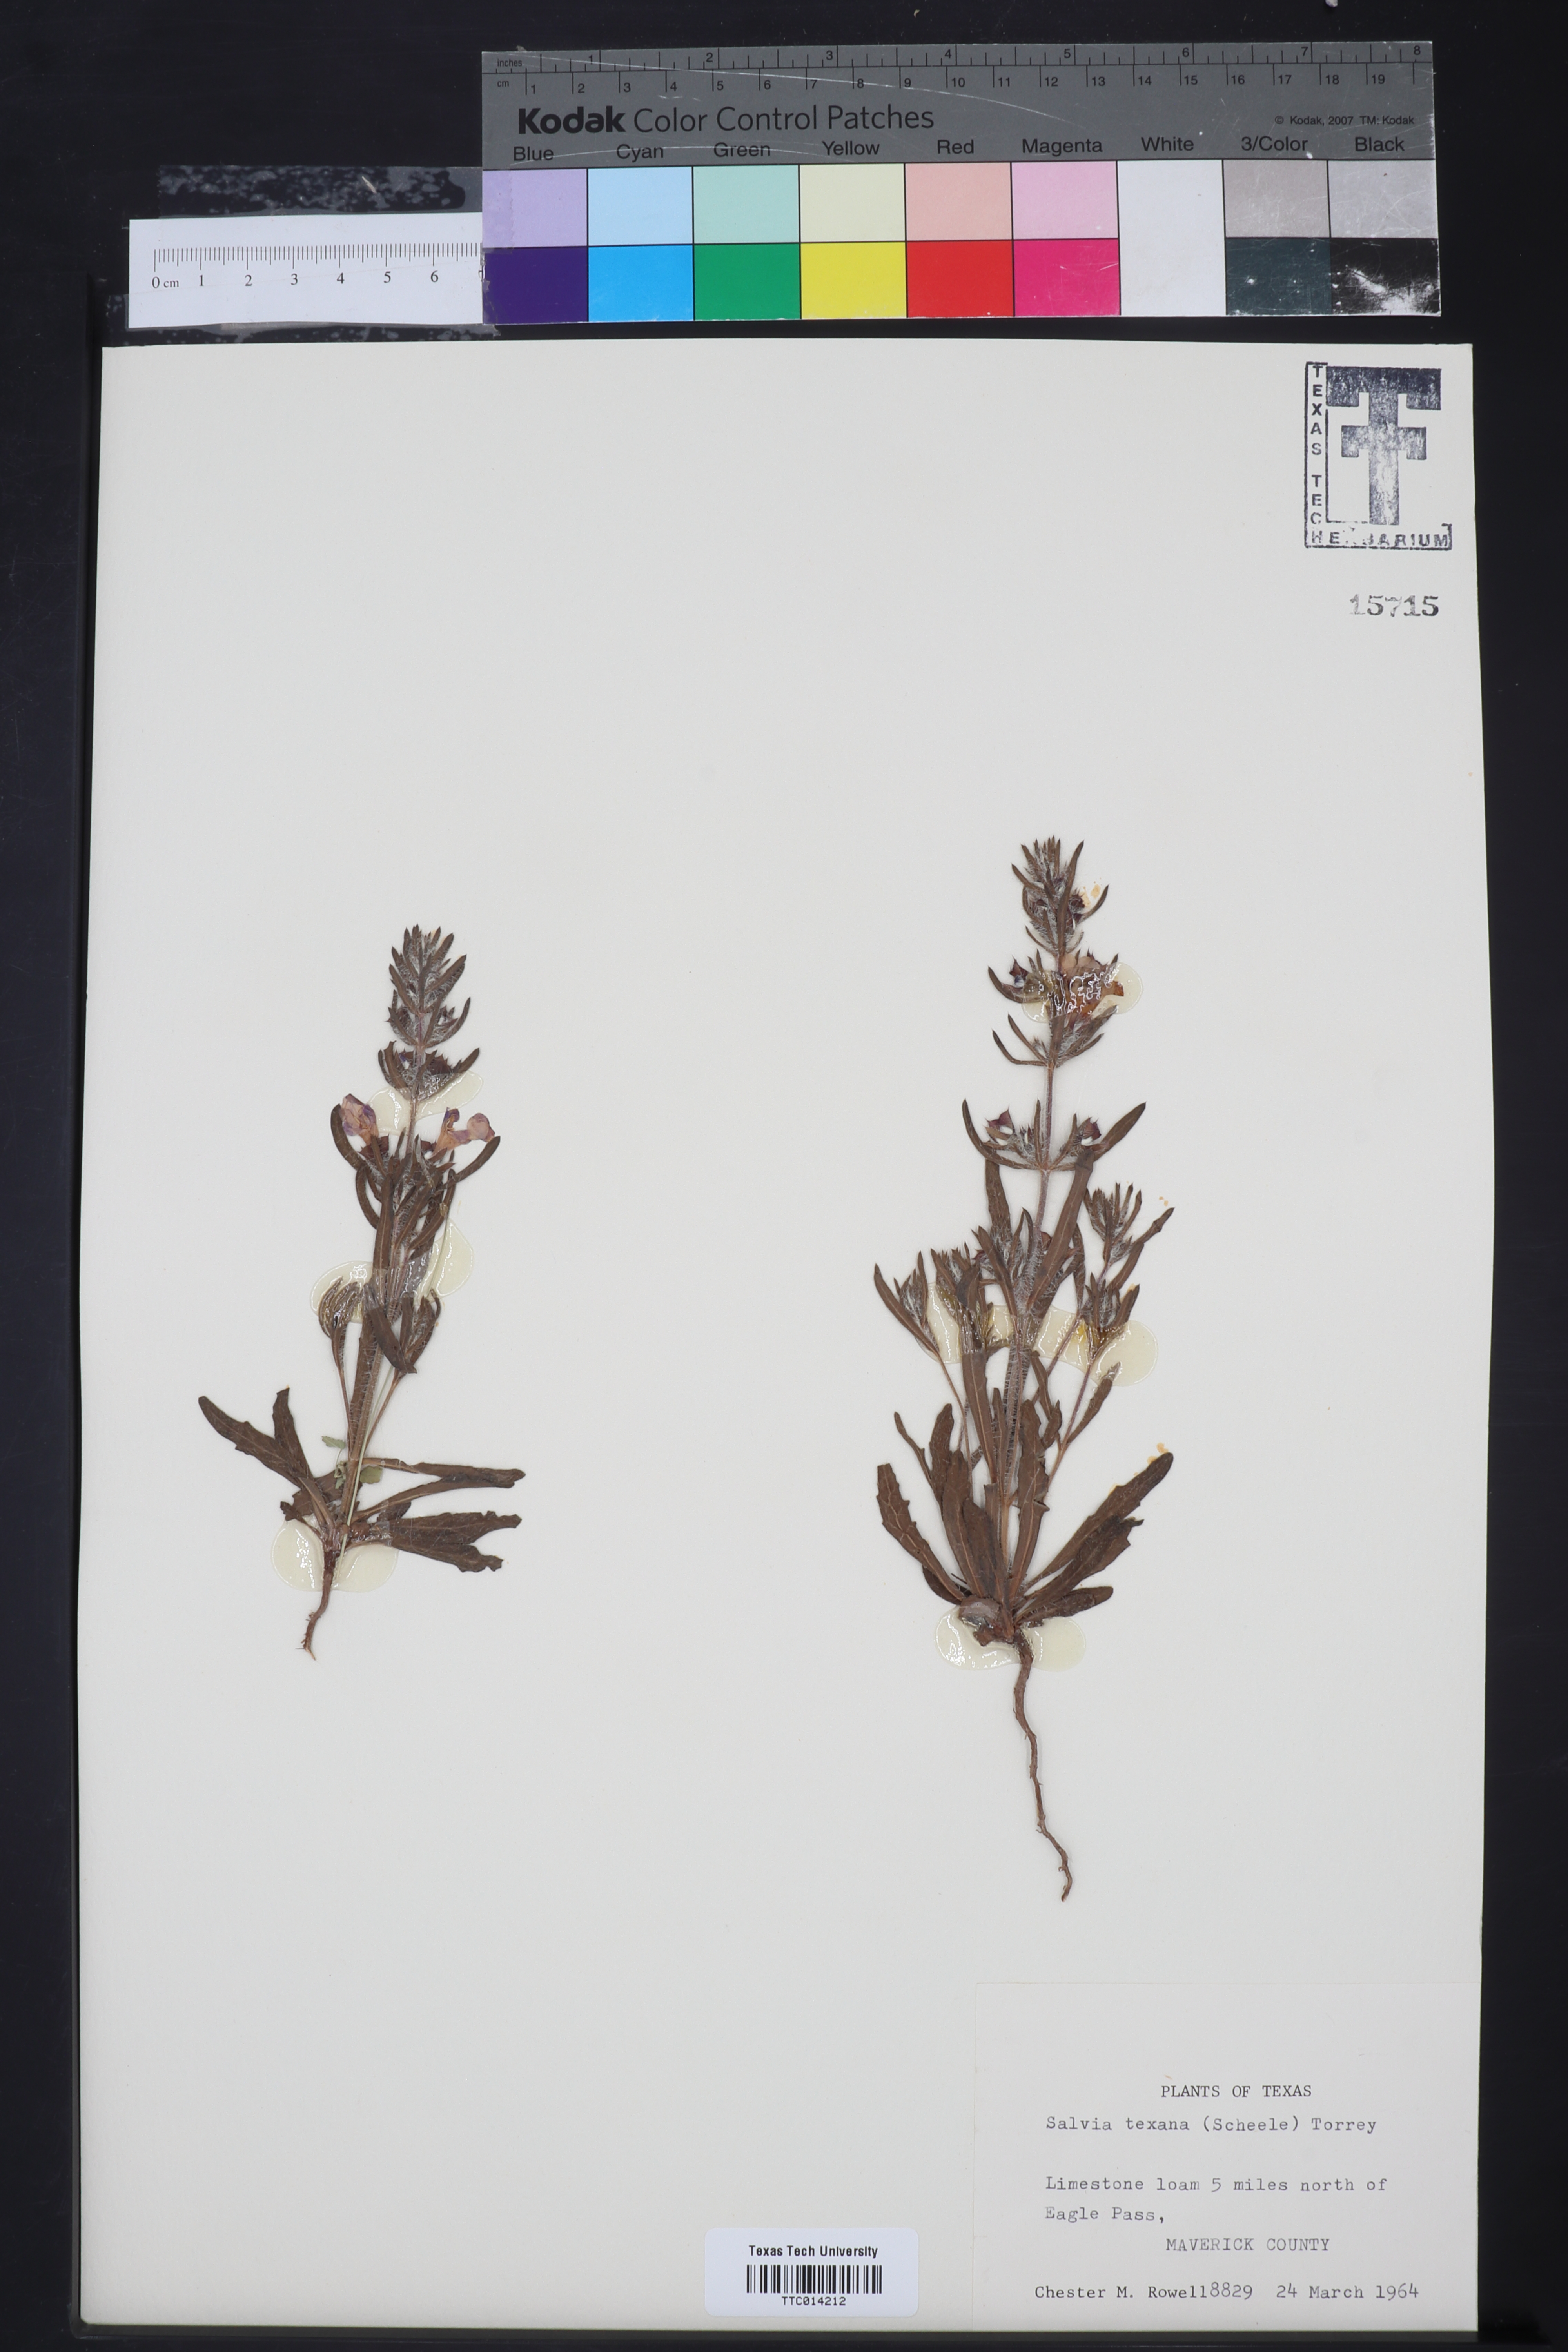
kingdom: Plantae
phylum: Tracheophyta
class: Magnoliopsida
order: Lamiales
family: Lamiaceae
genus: Salvia
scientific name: Salvia texana
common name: Texas sage
